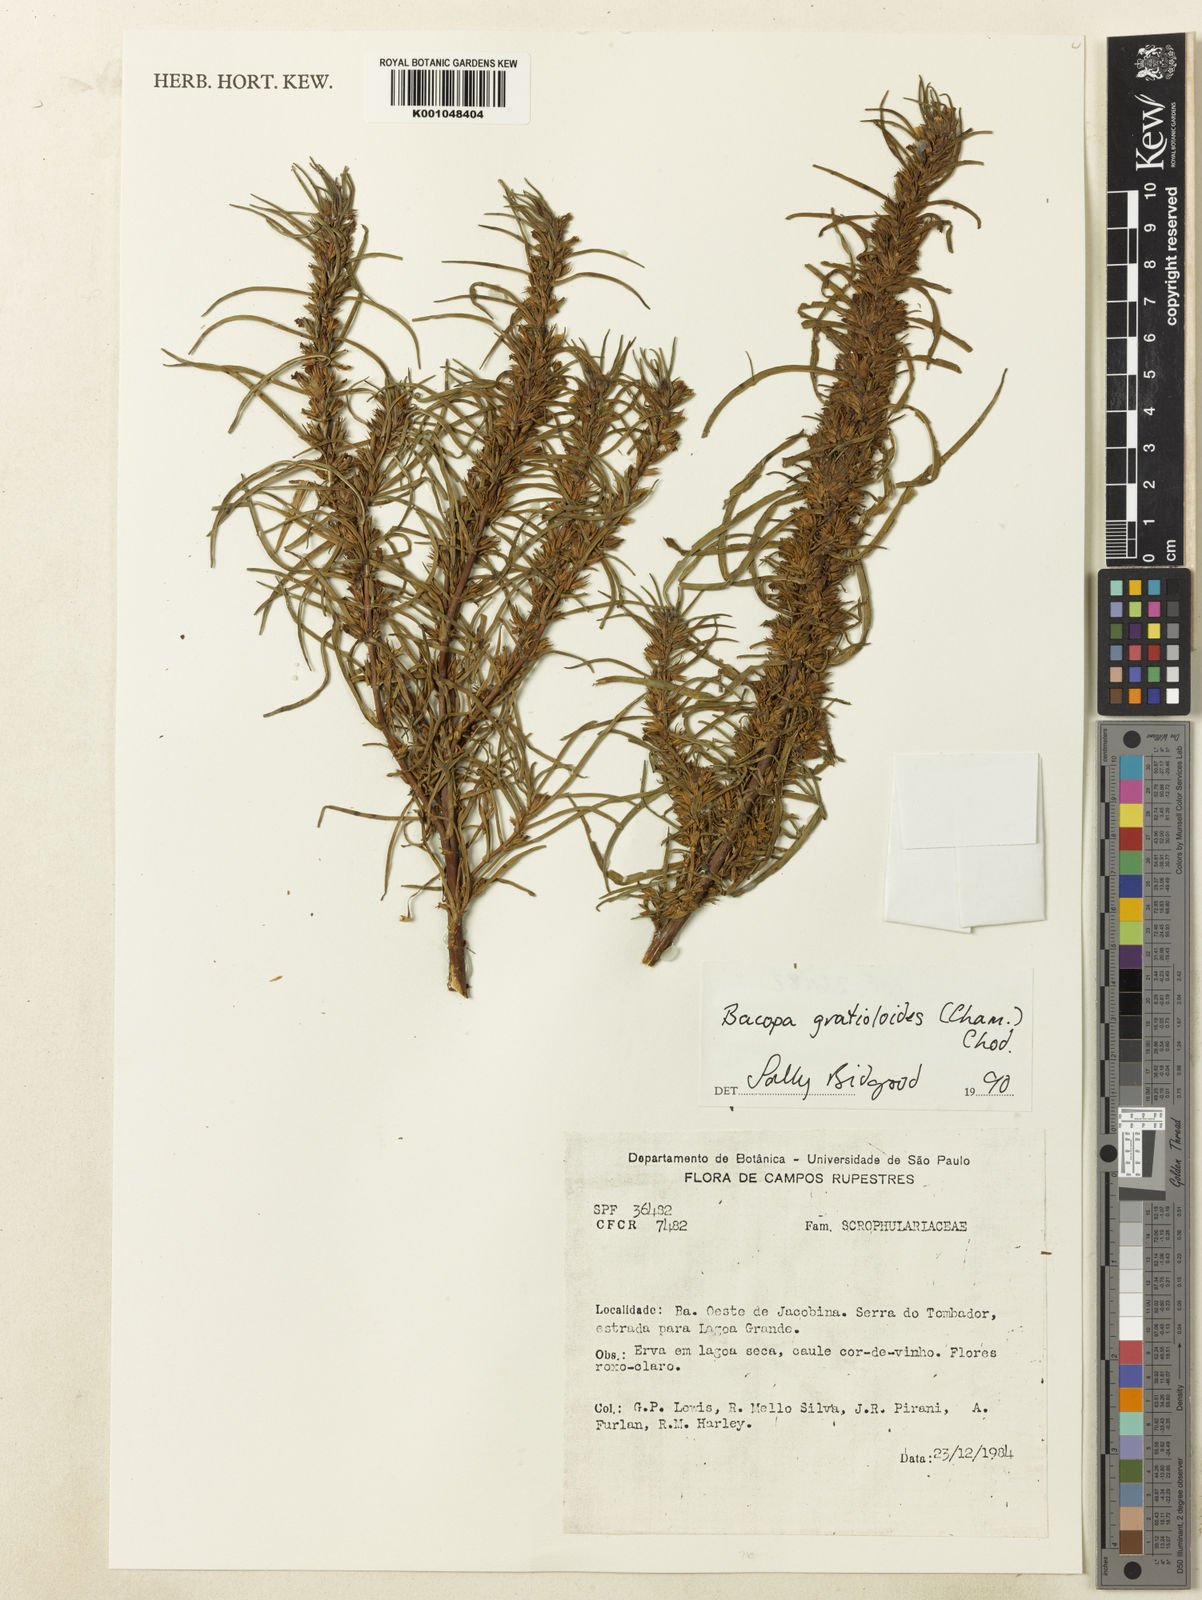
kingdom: Plantae
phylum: Tracheophyta
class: Magnoliopsida
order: Lamiales
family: Plantaginaceae
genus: Bacopa
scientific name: Bacopa
